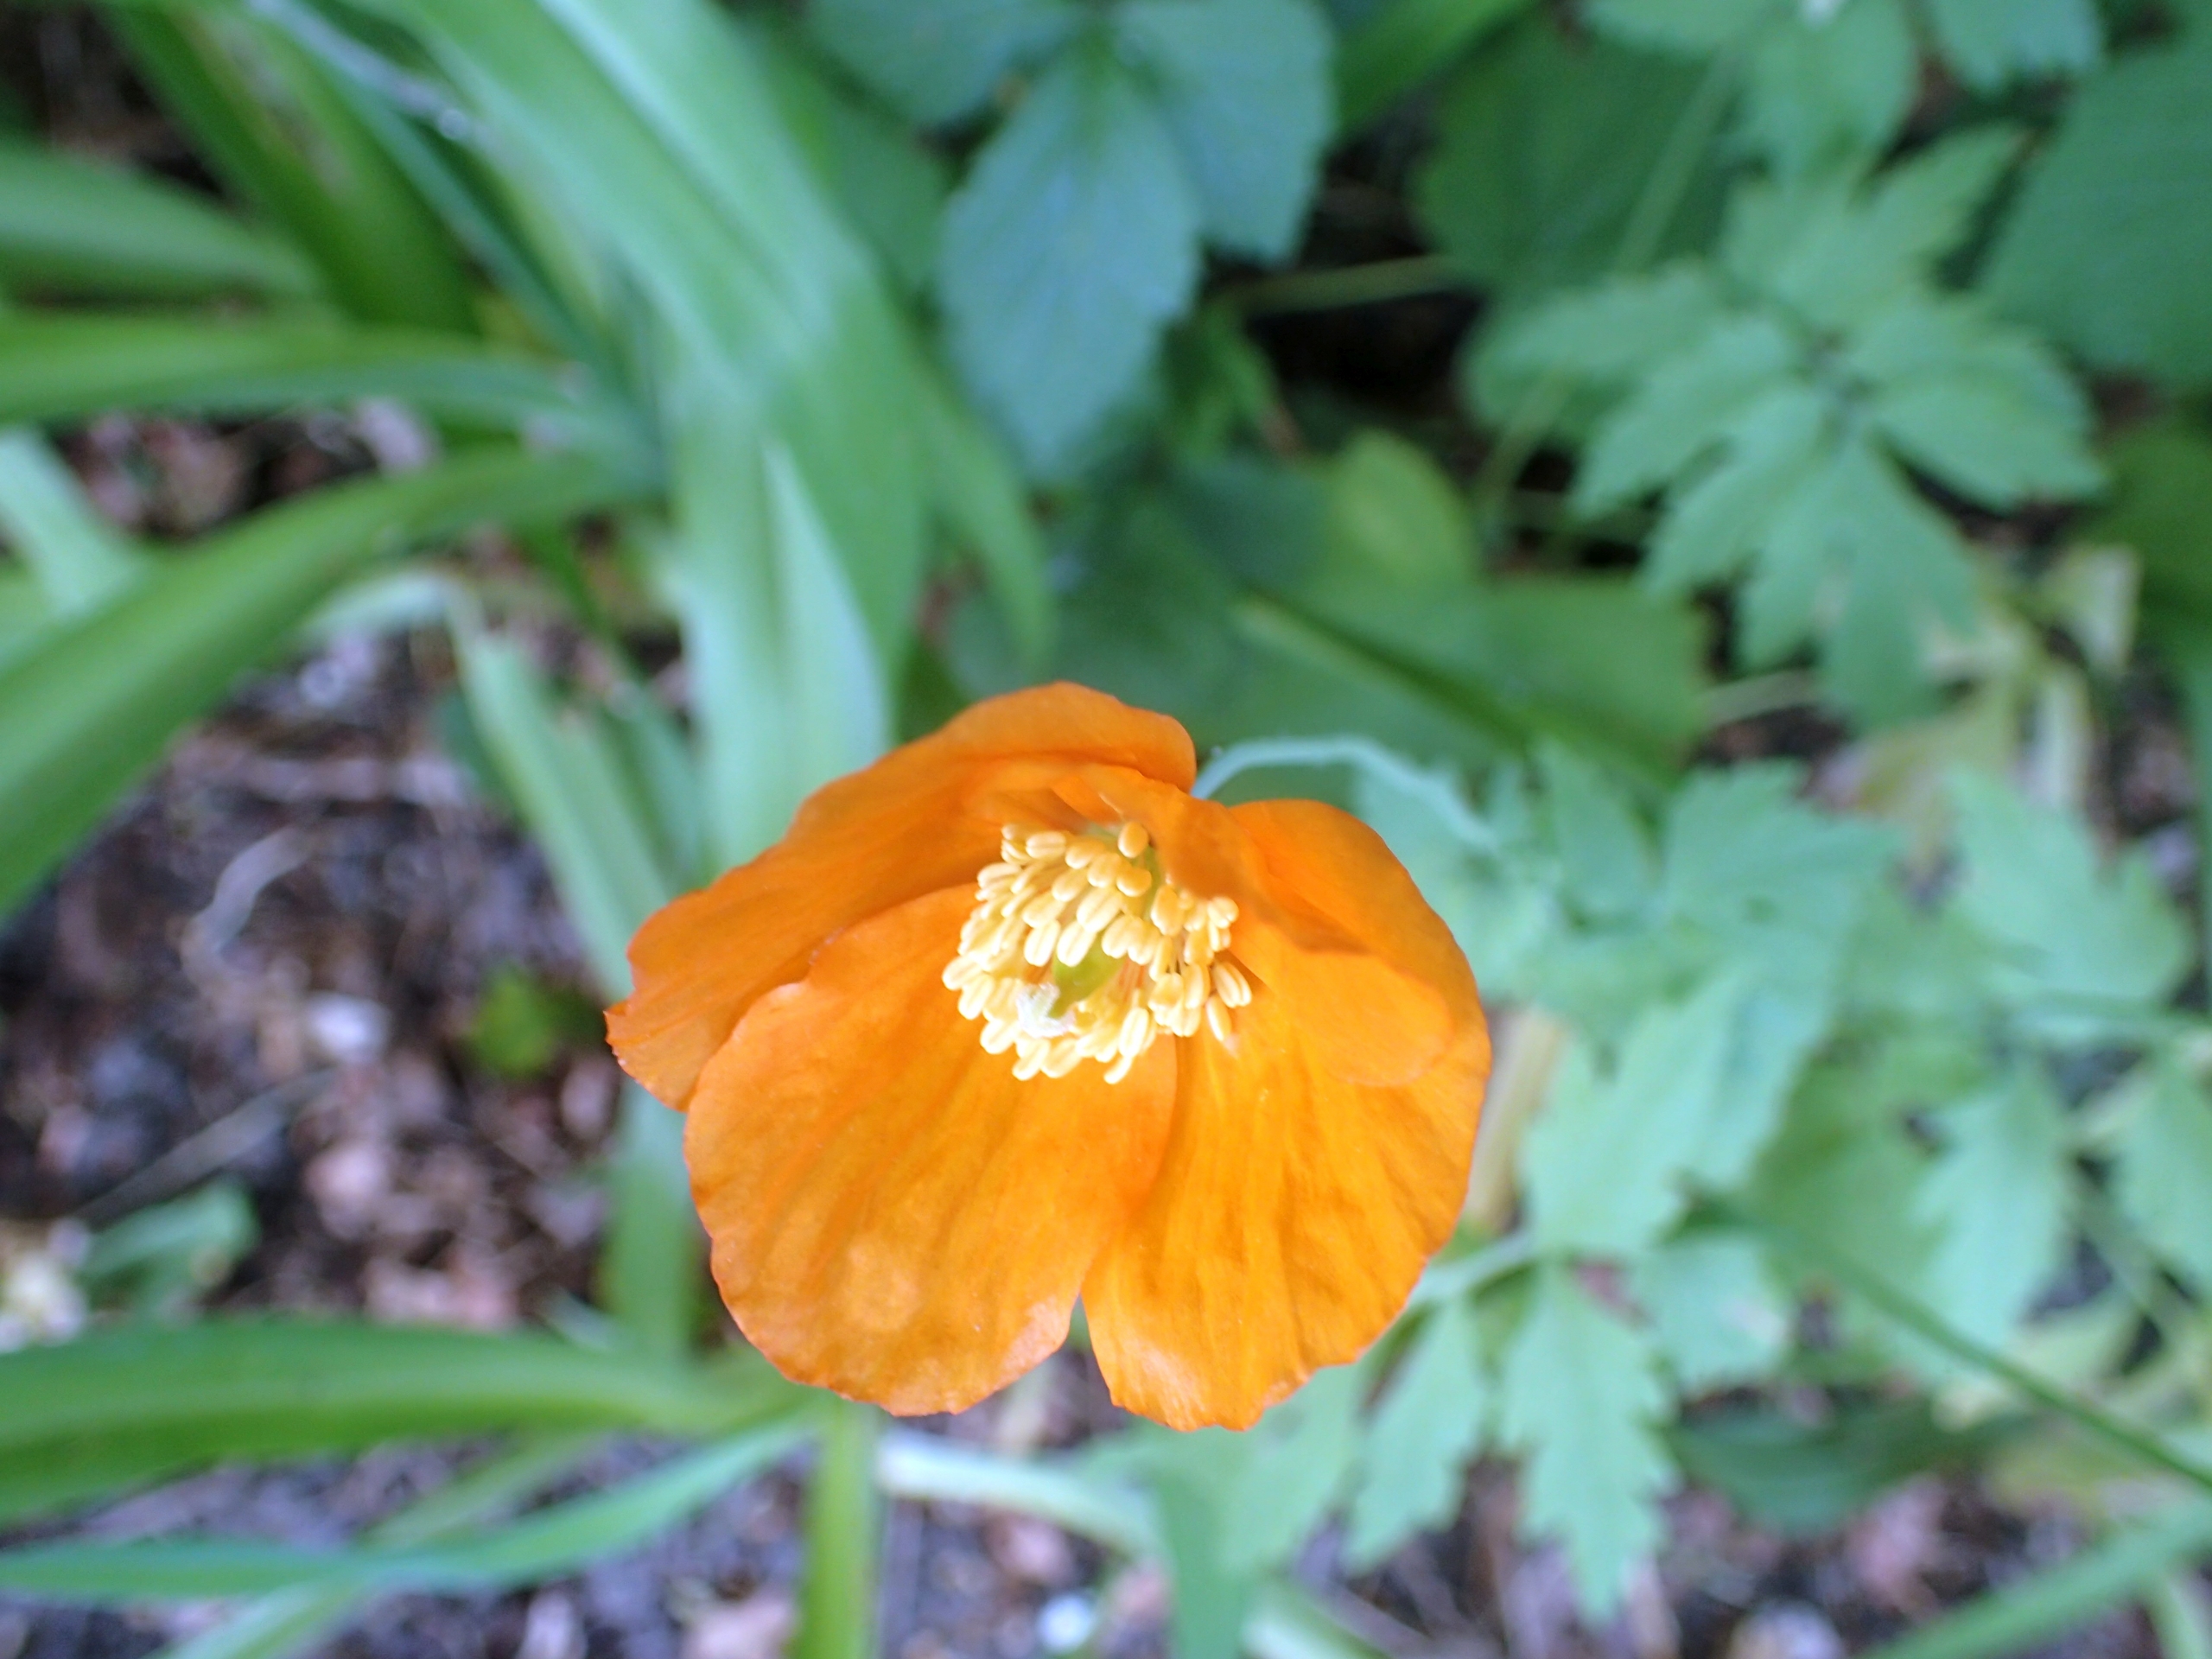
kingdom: Plantae
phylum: Tracheophyta
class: Magnoliopsida
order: Ranunculales
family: Papaveraceae
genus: Papaver
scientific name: Papaver cambricum
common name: Skov-valmue
